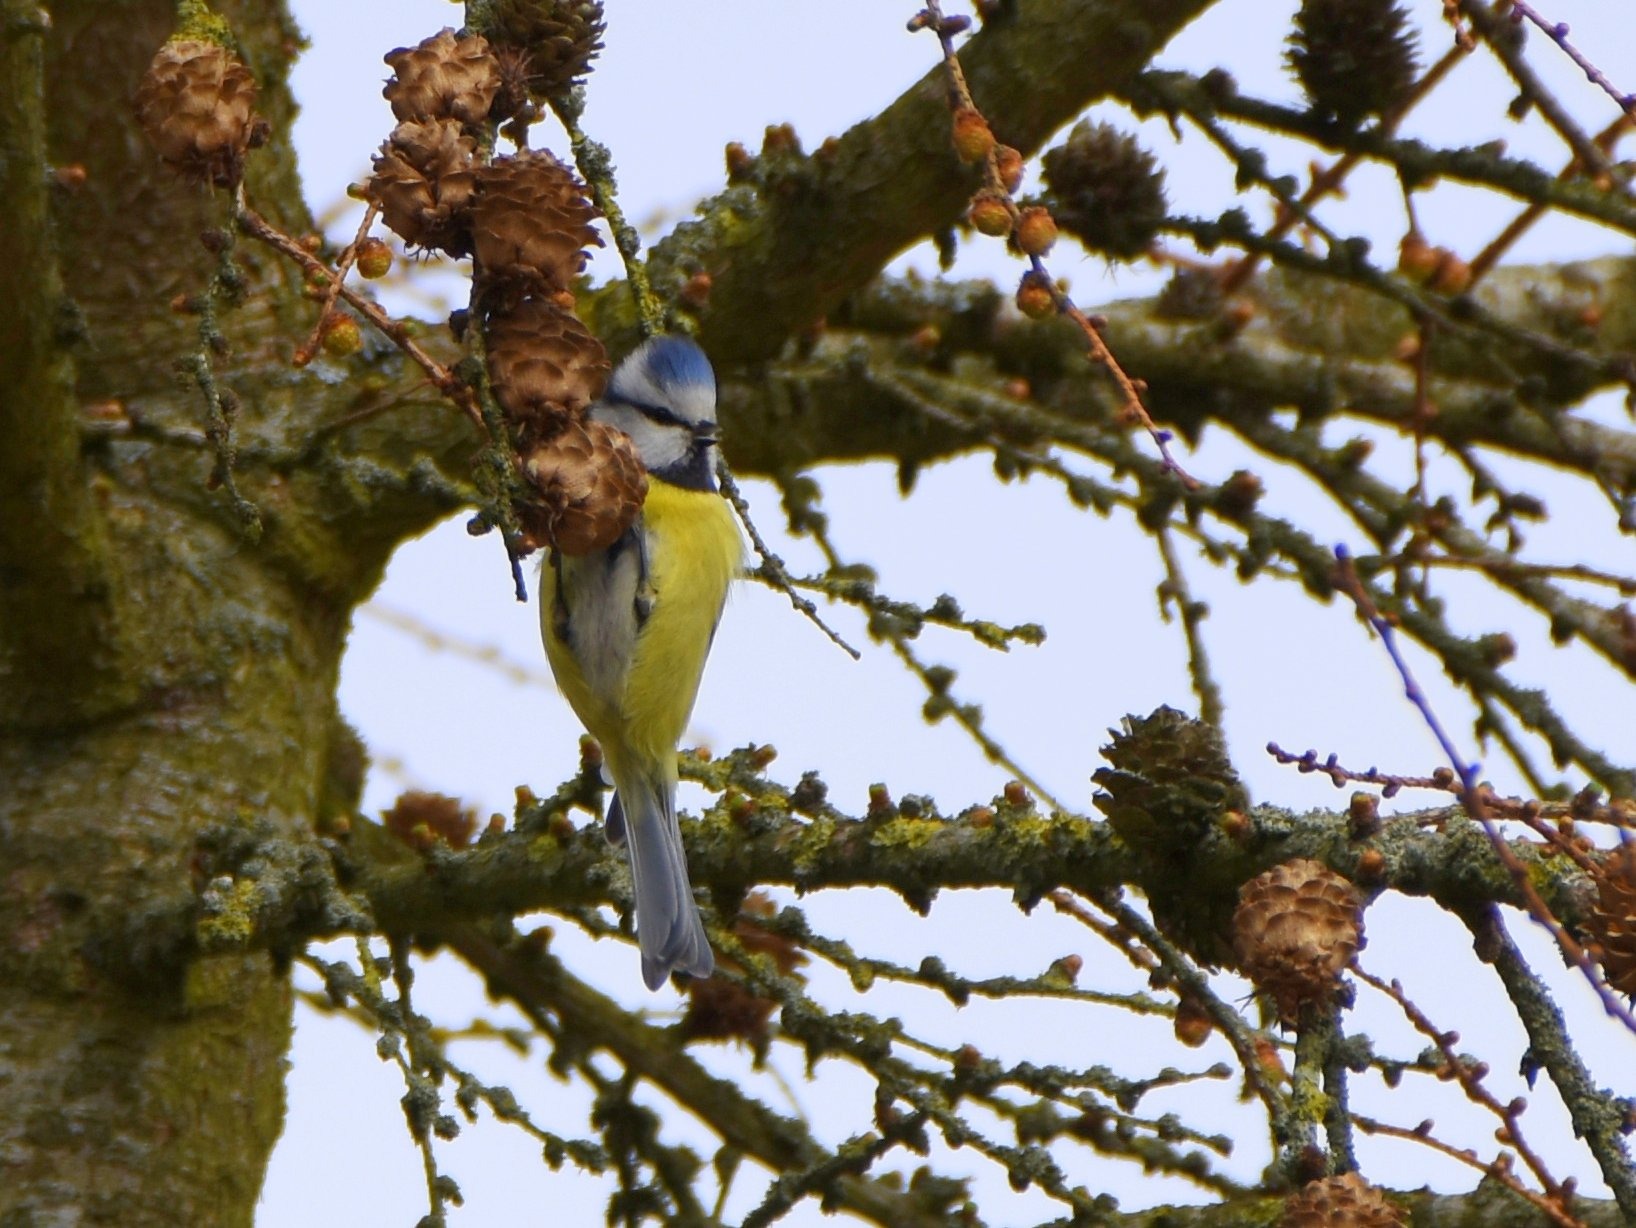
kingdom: Animalia
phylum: Chordata
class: Aves
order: Passeriformes
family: Paridae
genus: Cyanistes
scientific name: Cyanistes caeruleus
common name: Blåmejse
